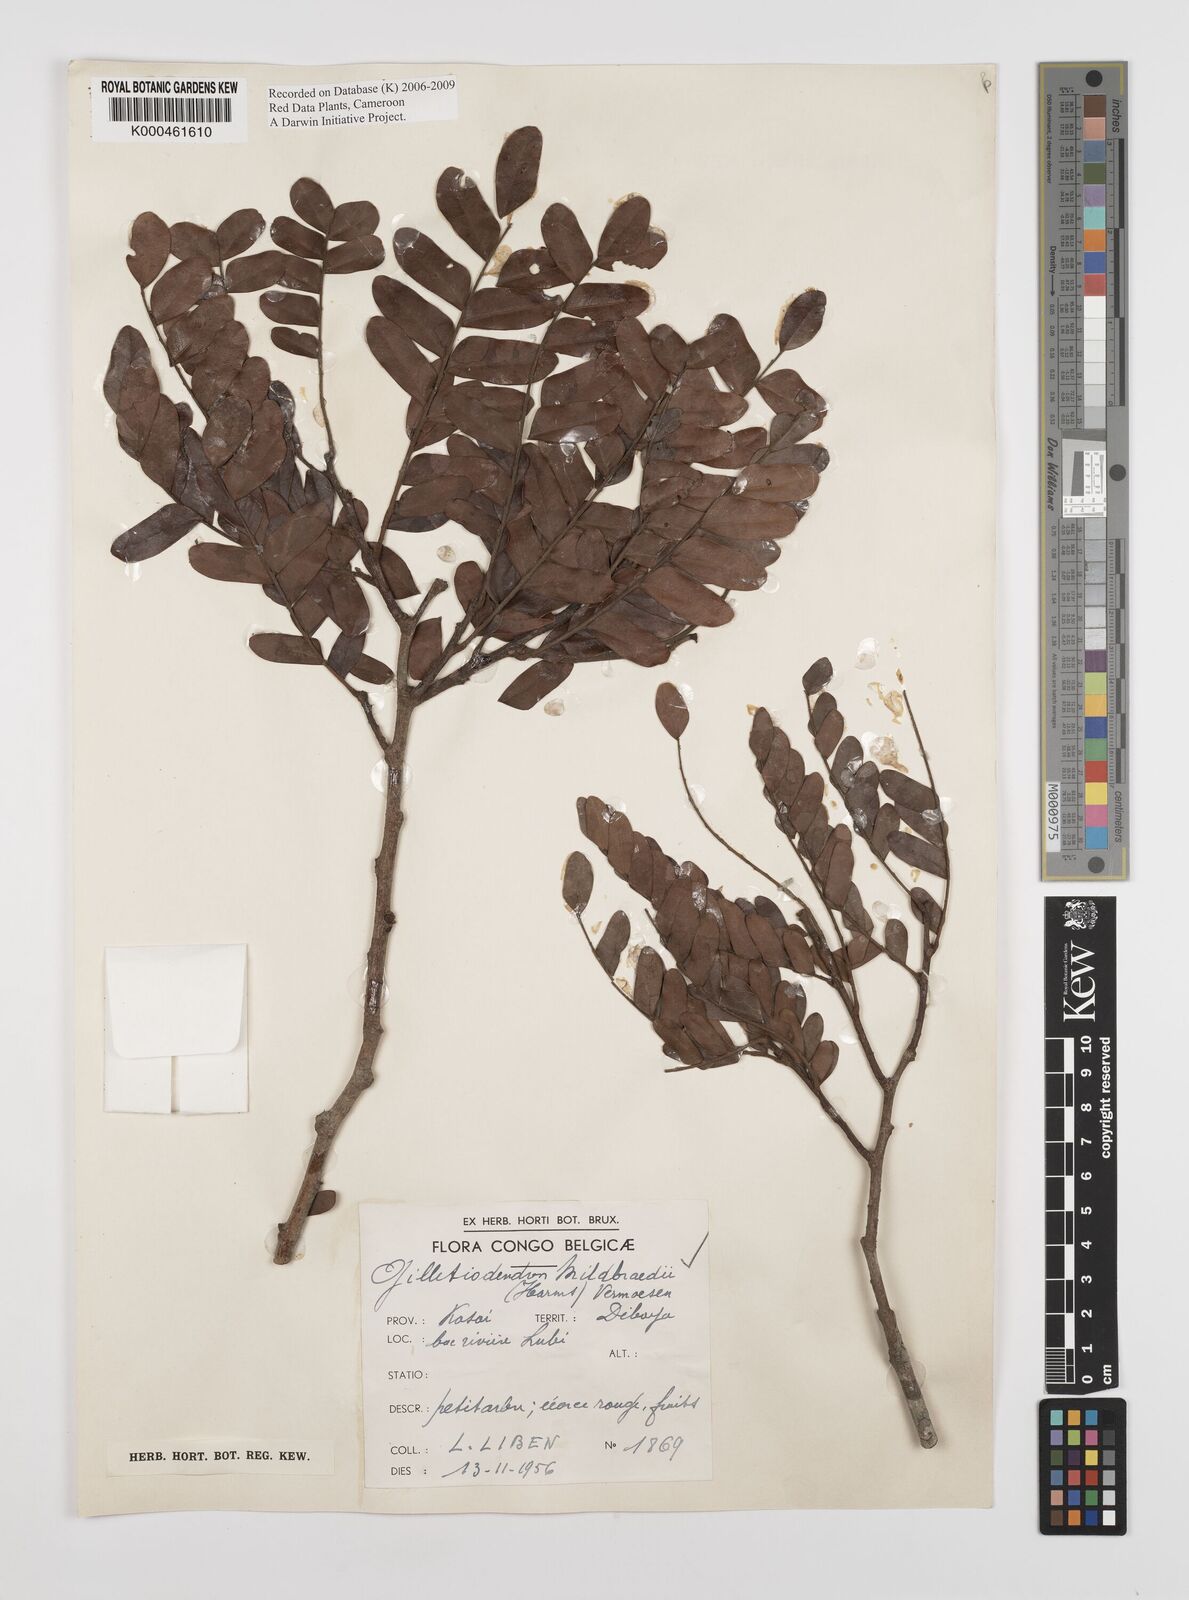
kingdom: Plantae
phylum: Tracheophyta
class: Magnoliopsida
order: Fabales
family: Fabaceae
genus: Gilletiodendron
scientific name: Gilletiodendron mildbraedii
